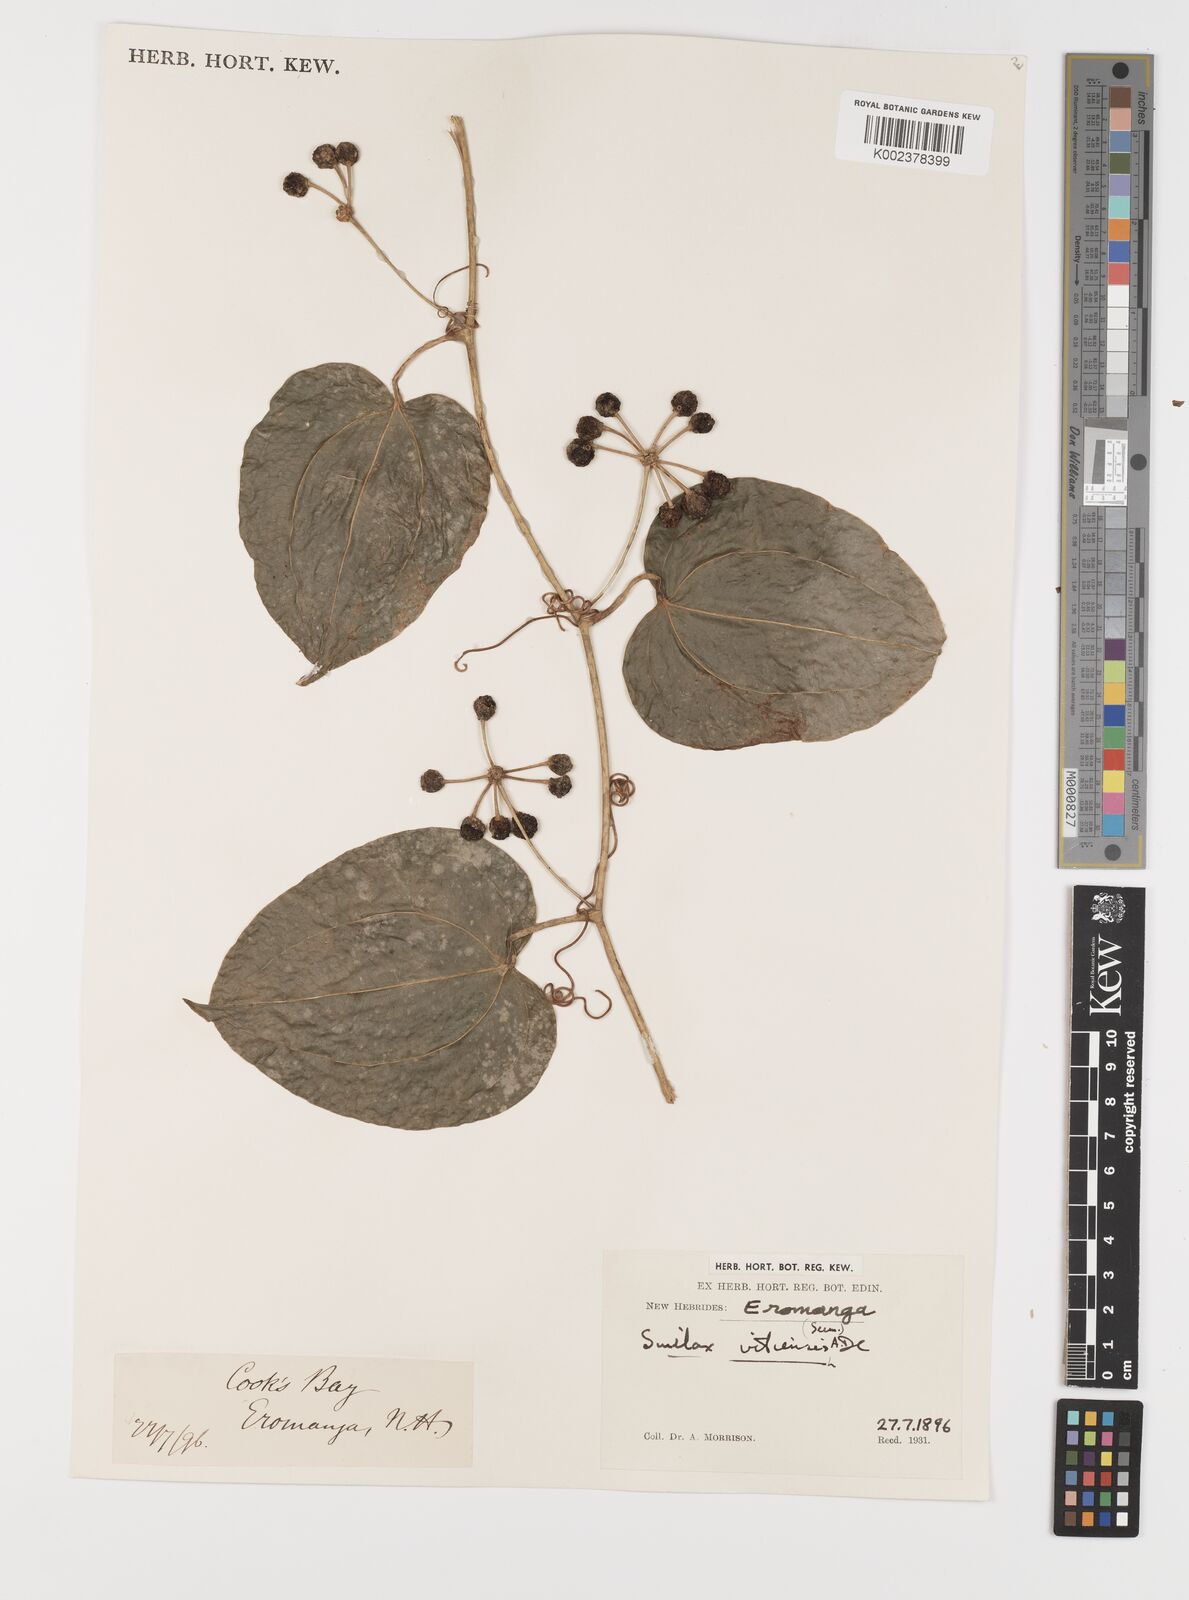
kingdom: Plantae
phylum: Tracheophyta
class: Liliopsida
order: Liliales
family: Smilacaceae
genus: Smilax
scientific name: Smilax vitiensis
